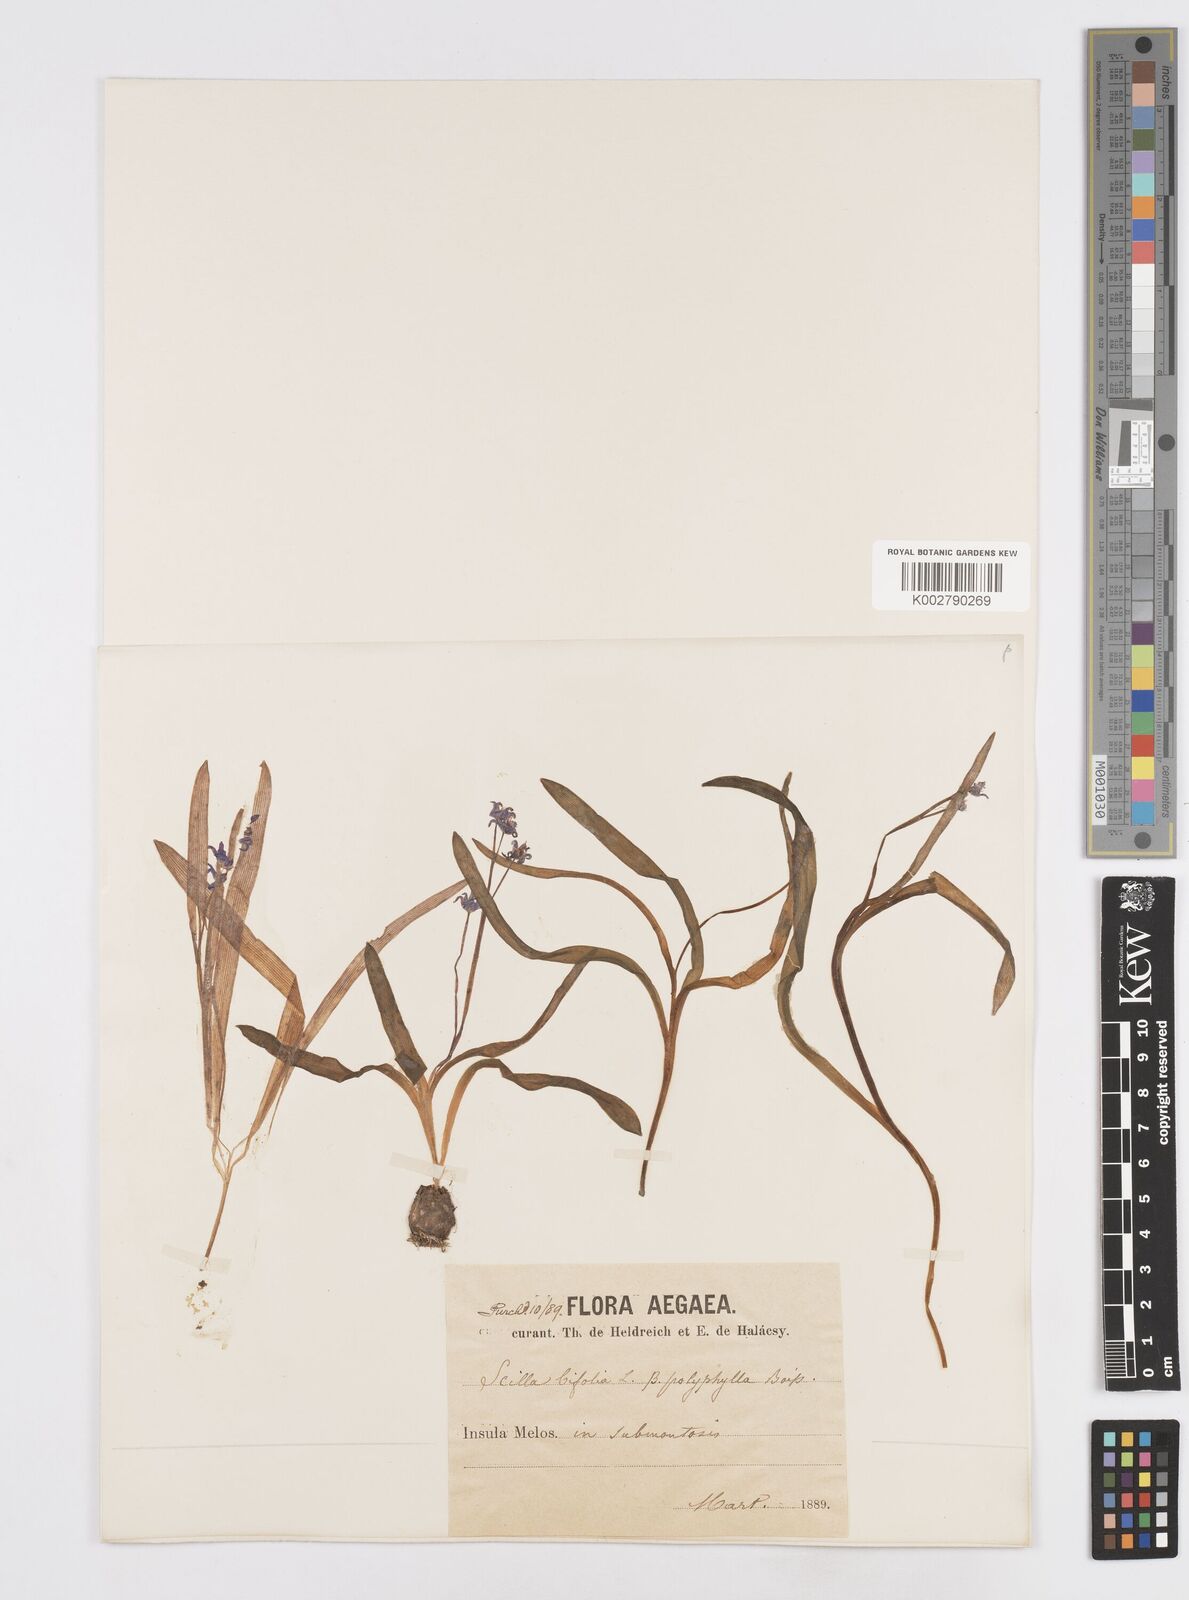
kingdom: Plantae
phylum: Tracheophyta
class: Liliopsida
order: Asparagales
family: Asparagaceae
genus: Scilla
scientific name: Scilla bifolia
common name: Alpine squill
